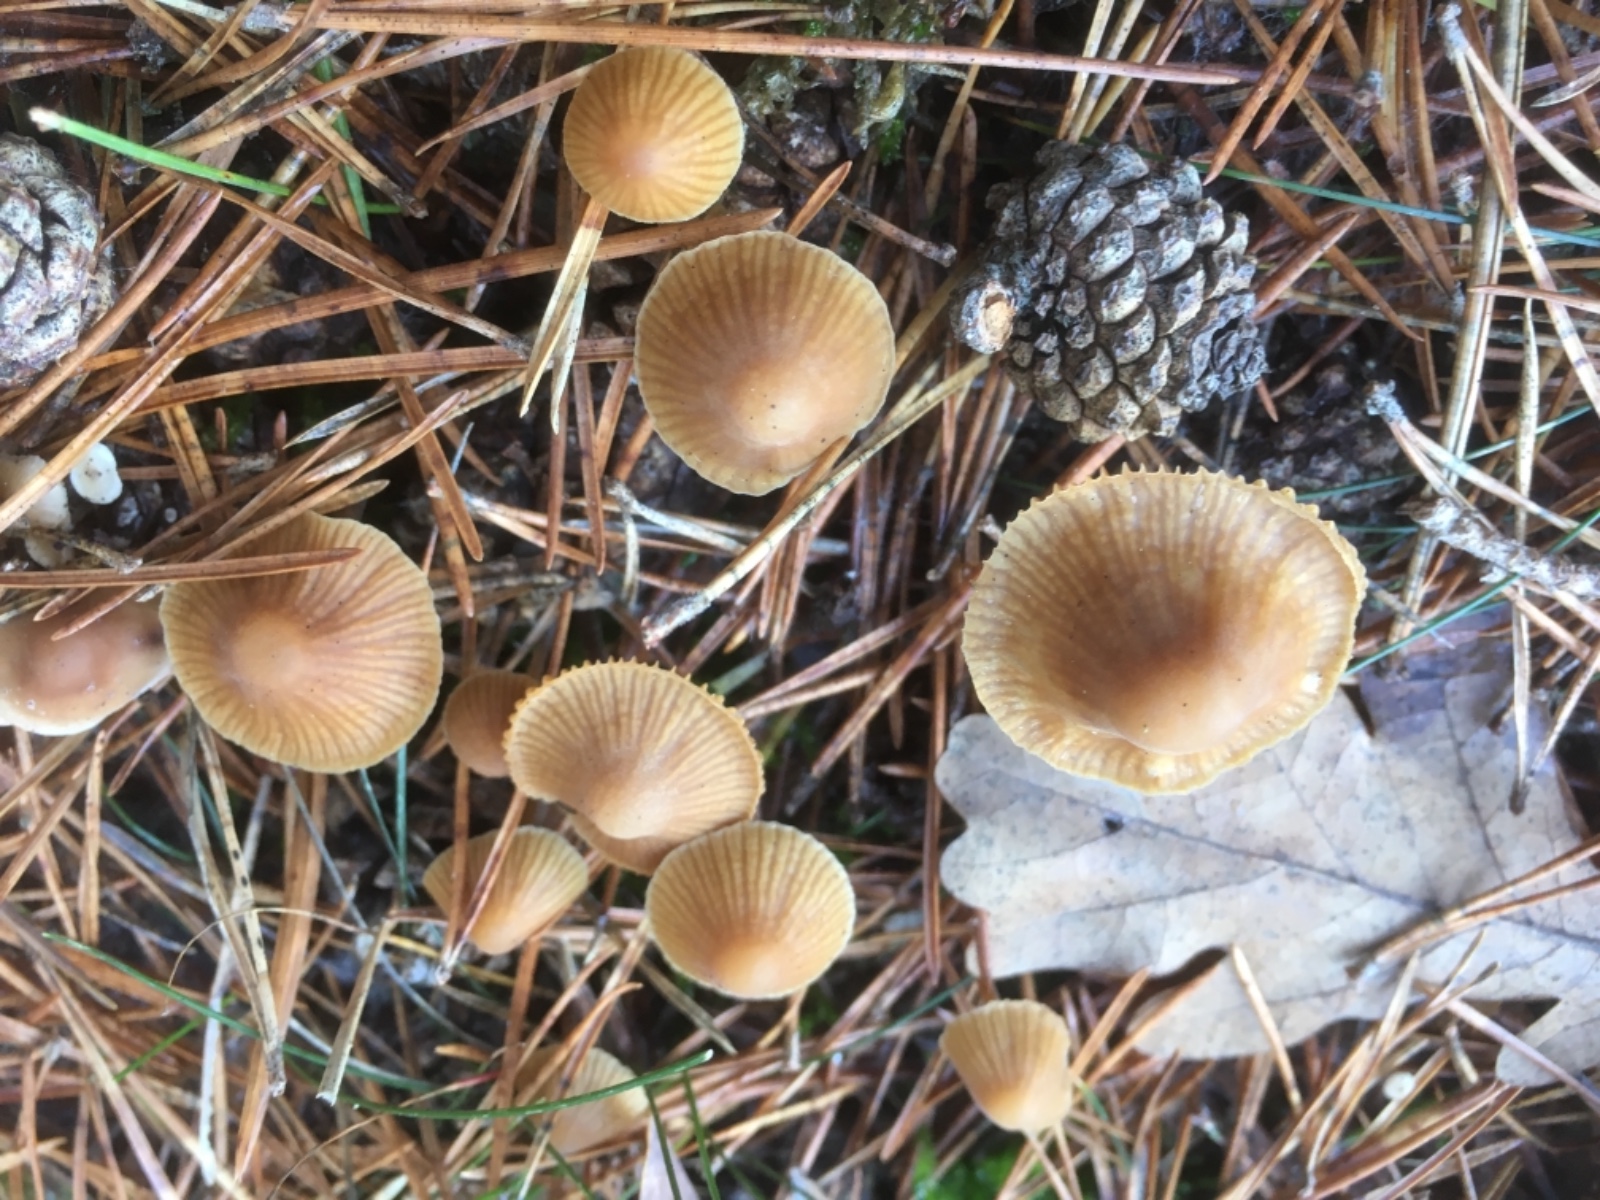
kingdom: Fungi
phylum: Basidiomycota
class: Agaricomycetes
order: Agaricales
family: Hymenogastraceae
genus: Galerina
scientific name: Galerina
